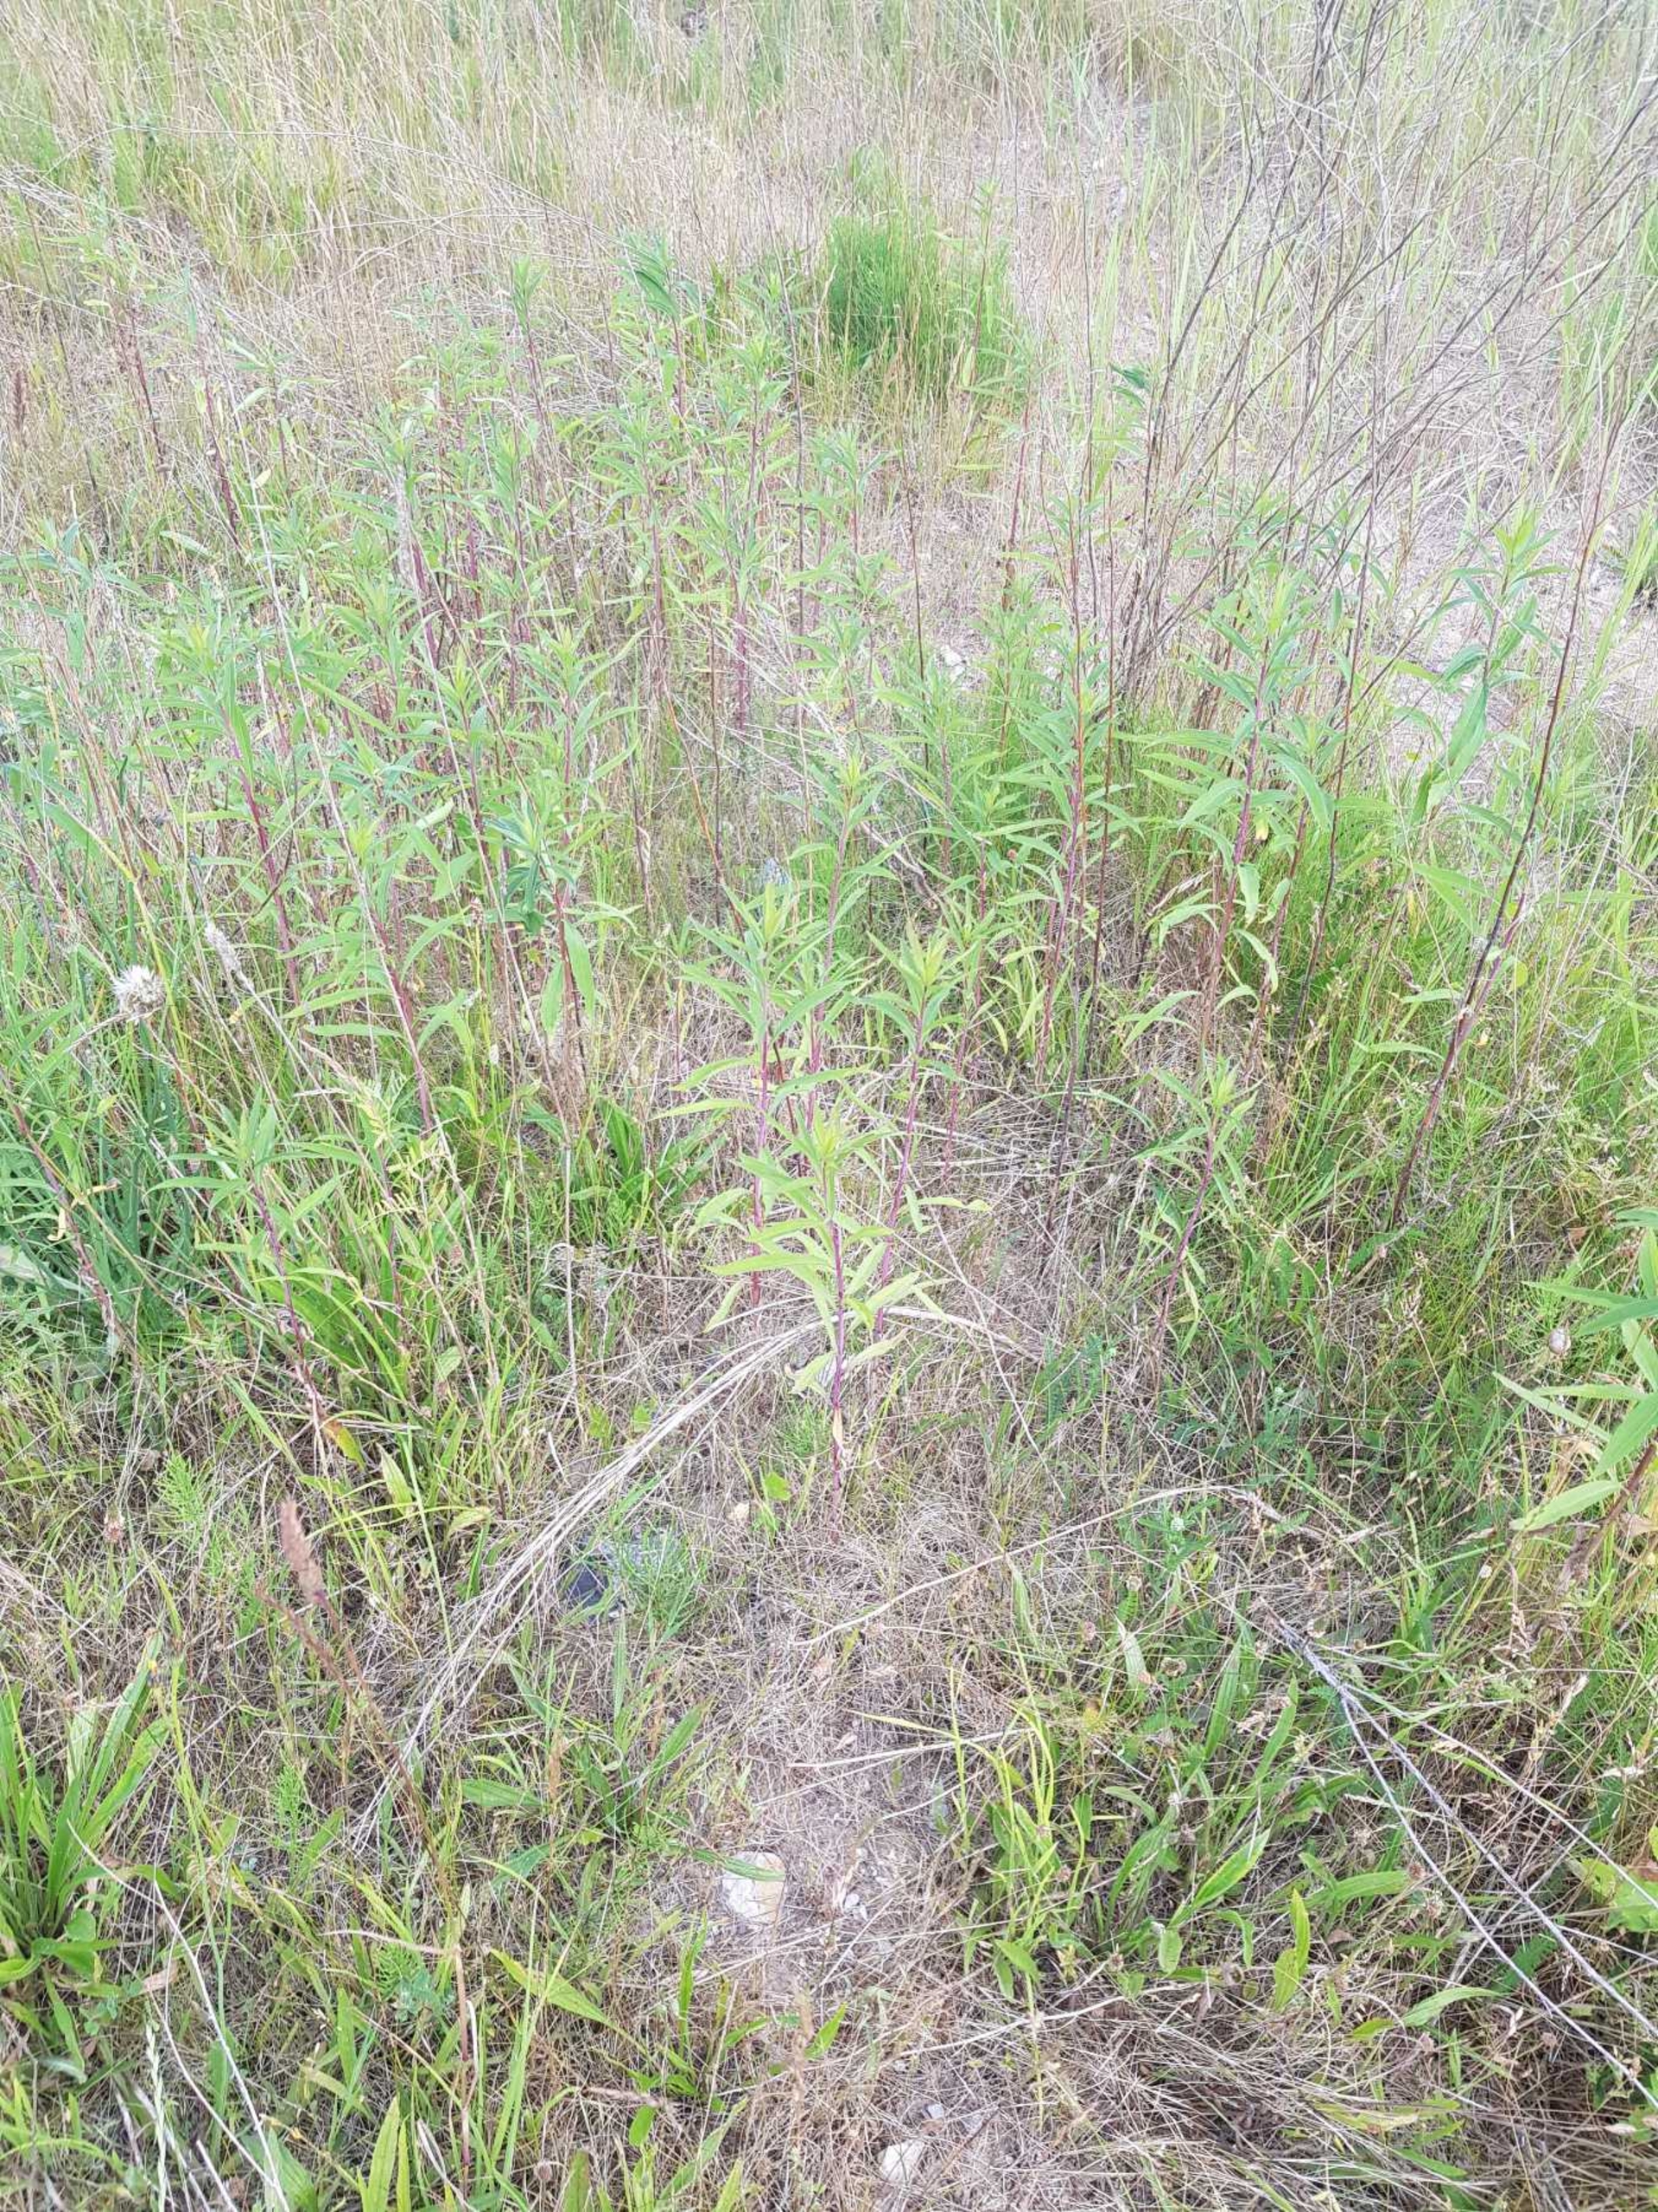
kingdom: Plantae
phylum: Tracheophyta
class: Magnoliopsida
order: Asterales
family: Asteraceae
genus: Solidago
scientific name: Solidago gigantea
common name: Sildig gyldenris
